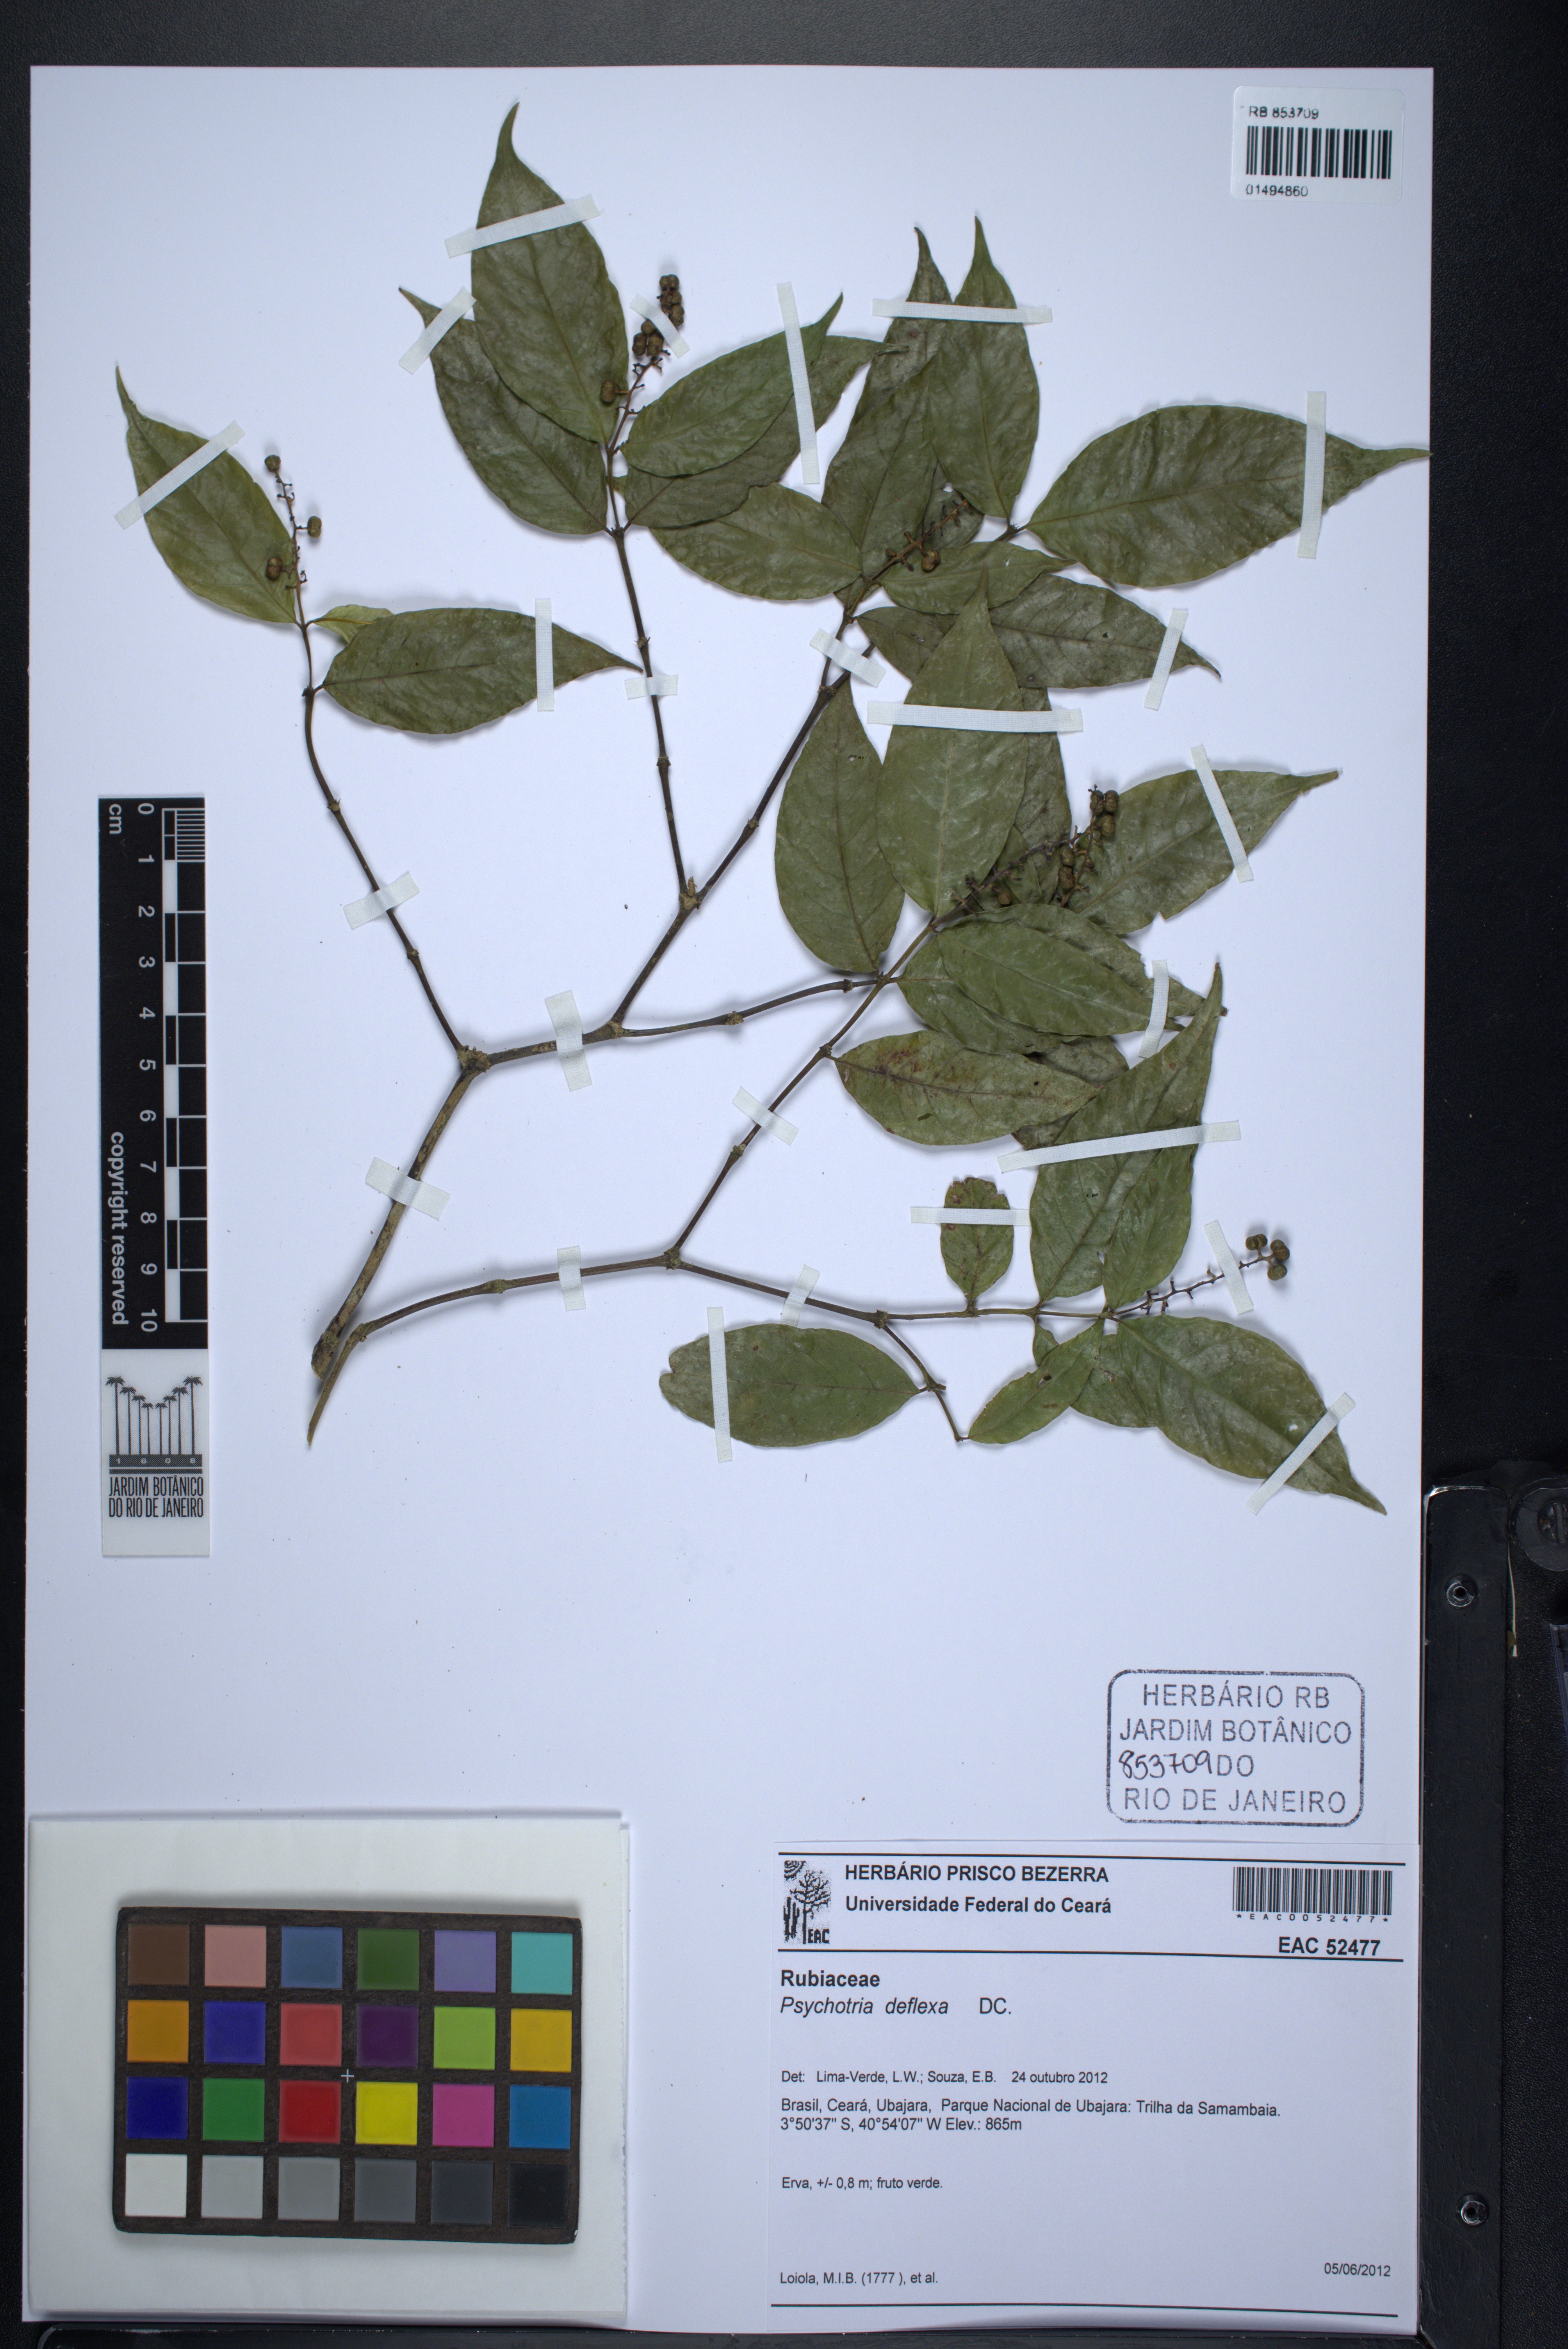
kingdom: Plantae
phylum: Tracheophyta
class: Magnoliopsida
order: Gentianales
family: Rubiaceae
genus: Palicourea
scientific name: Palicourea deflexa
